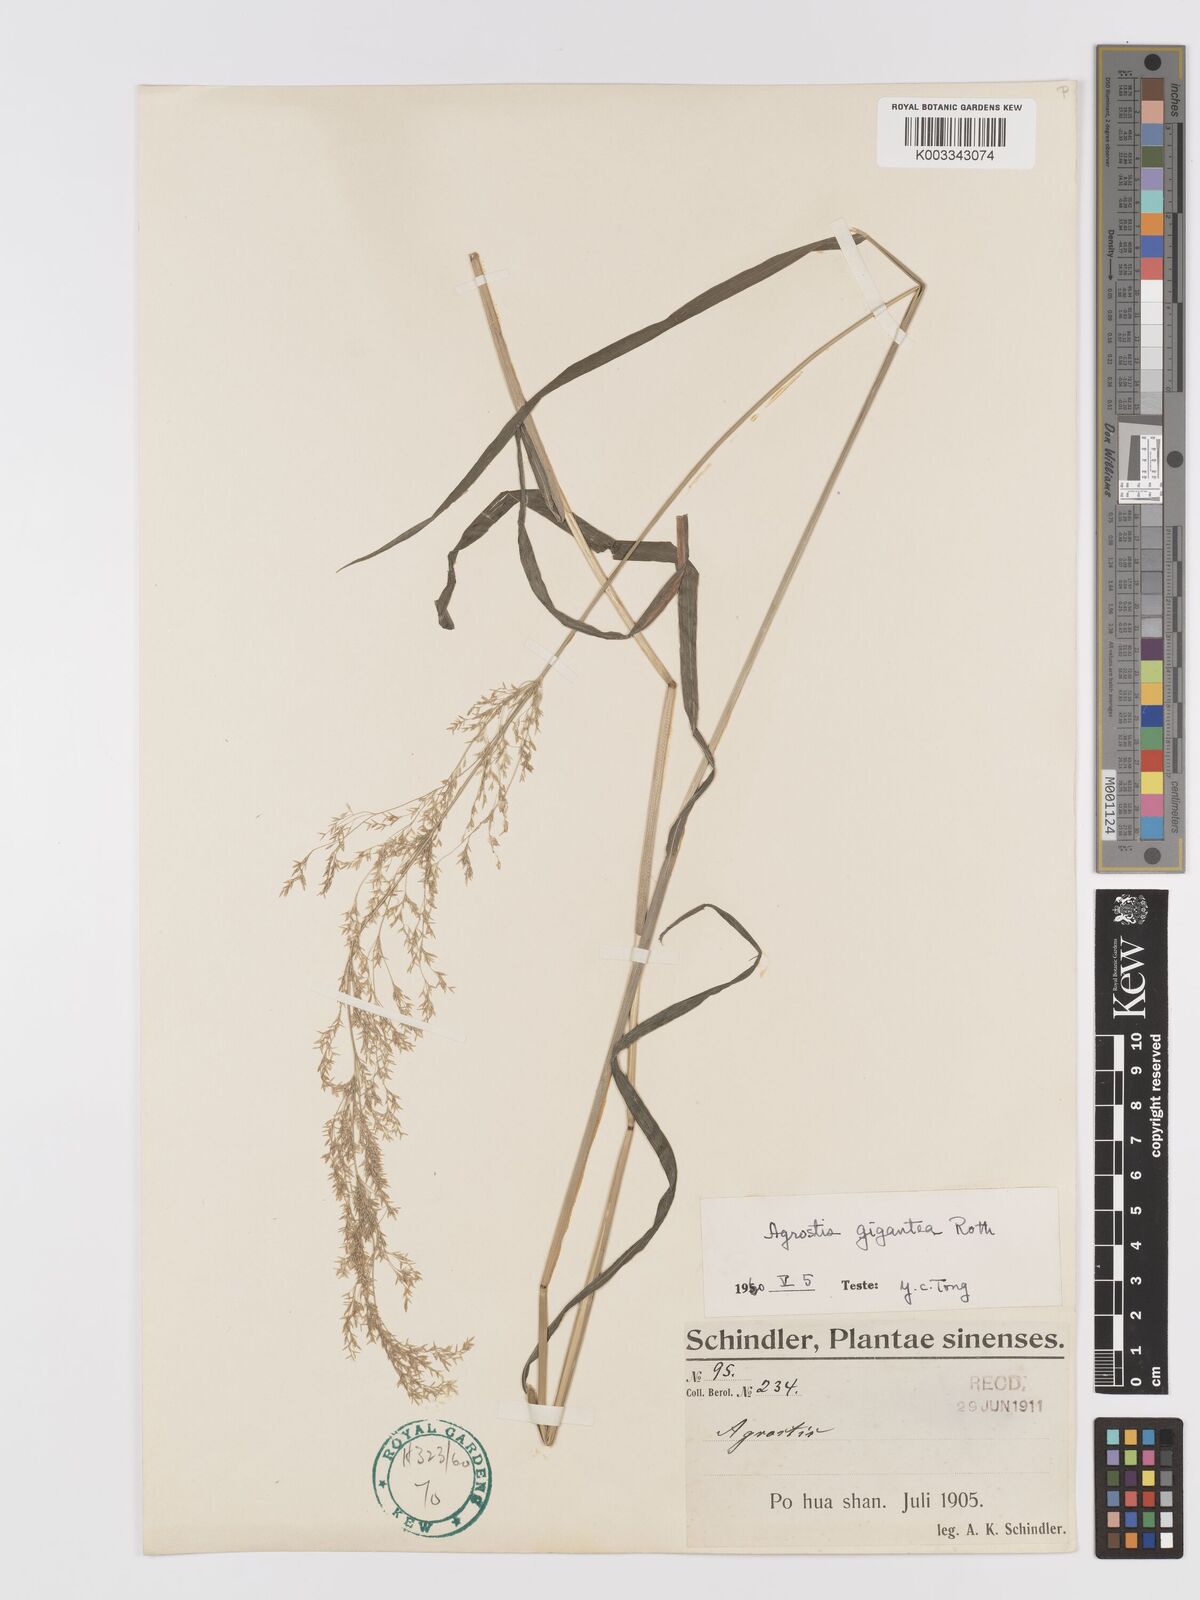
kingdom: Plantae
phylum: Tracheophyta
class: Liliopsida
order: Poales
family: Poaceae
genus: Agrostis
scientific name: Agrostis gigantea
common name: Black bent
